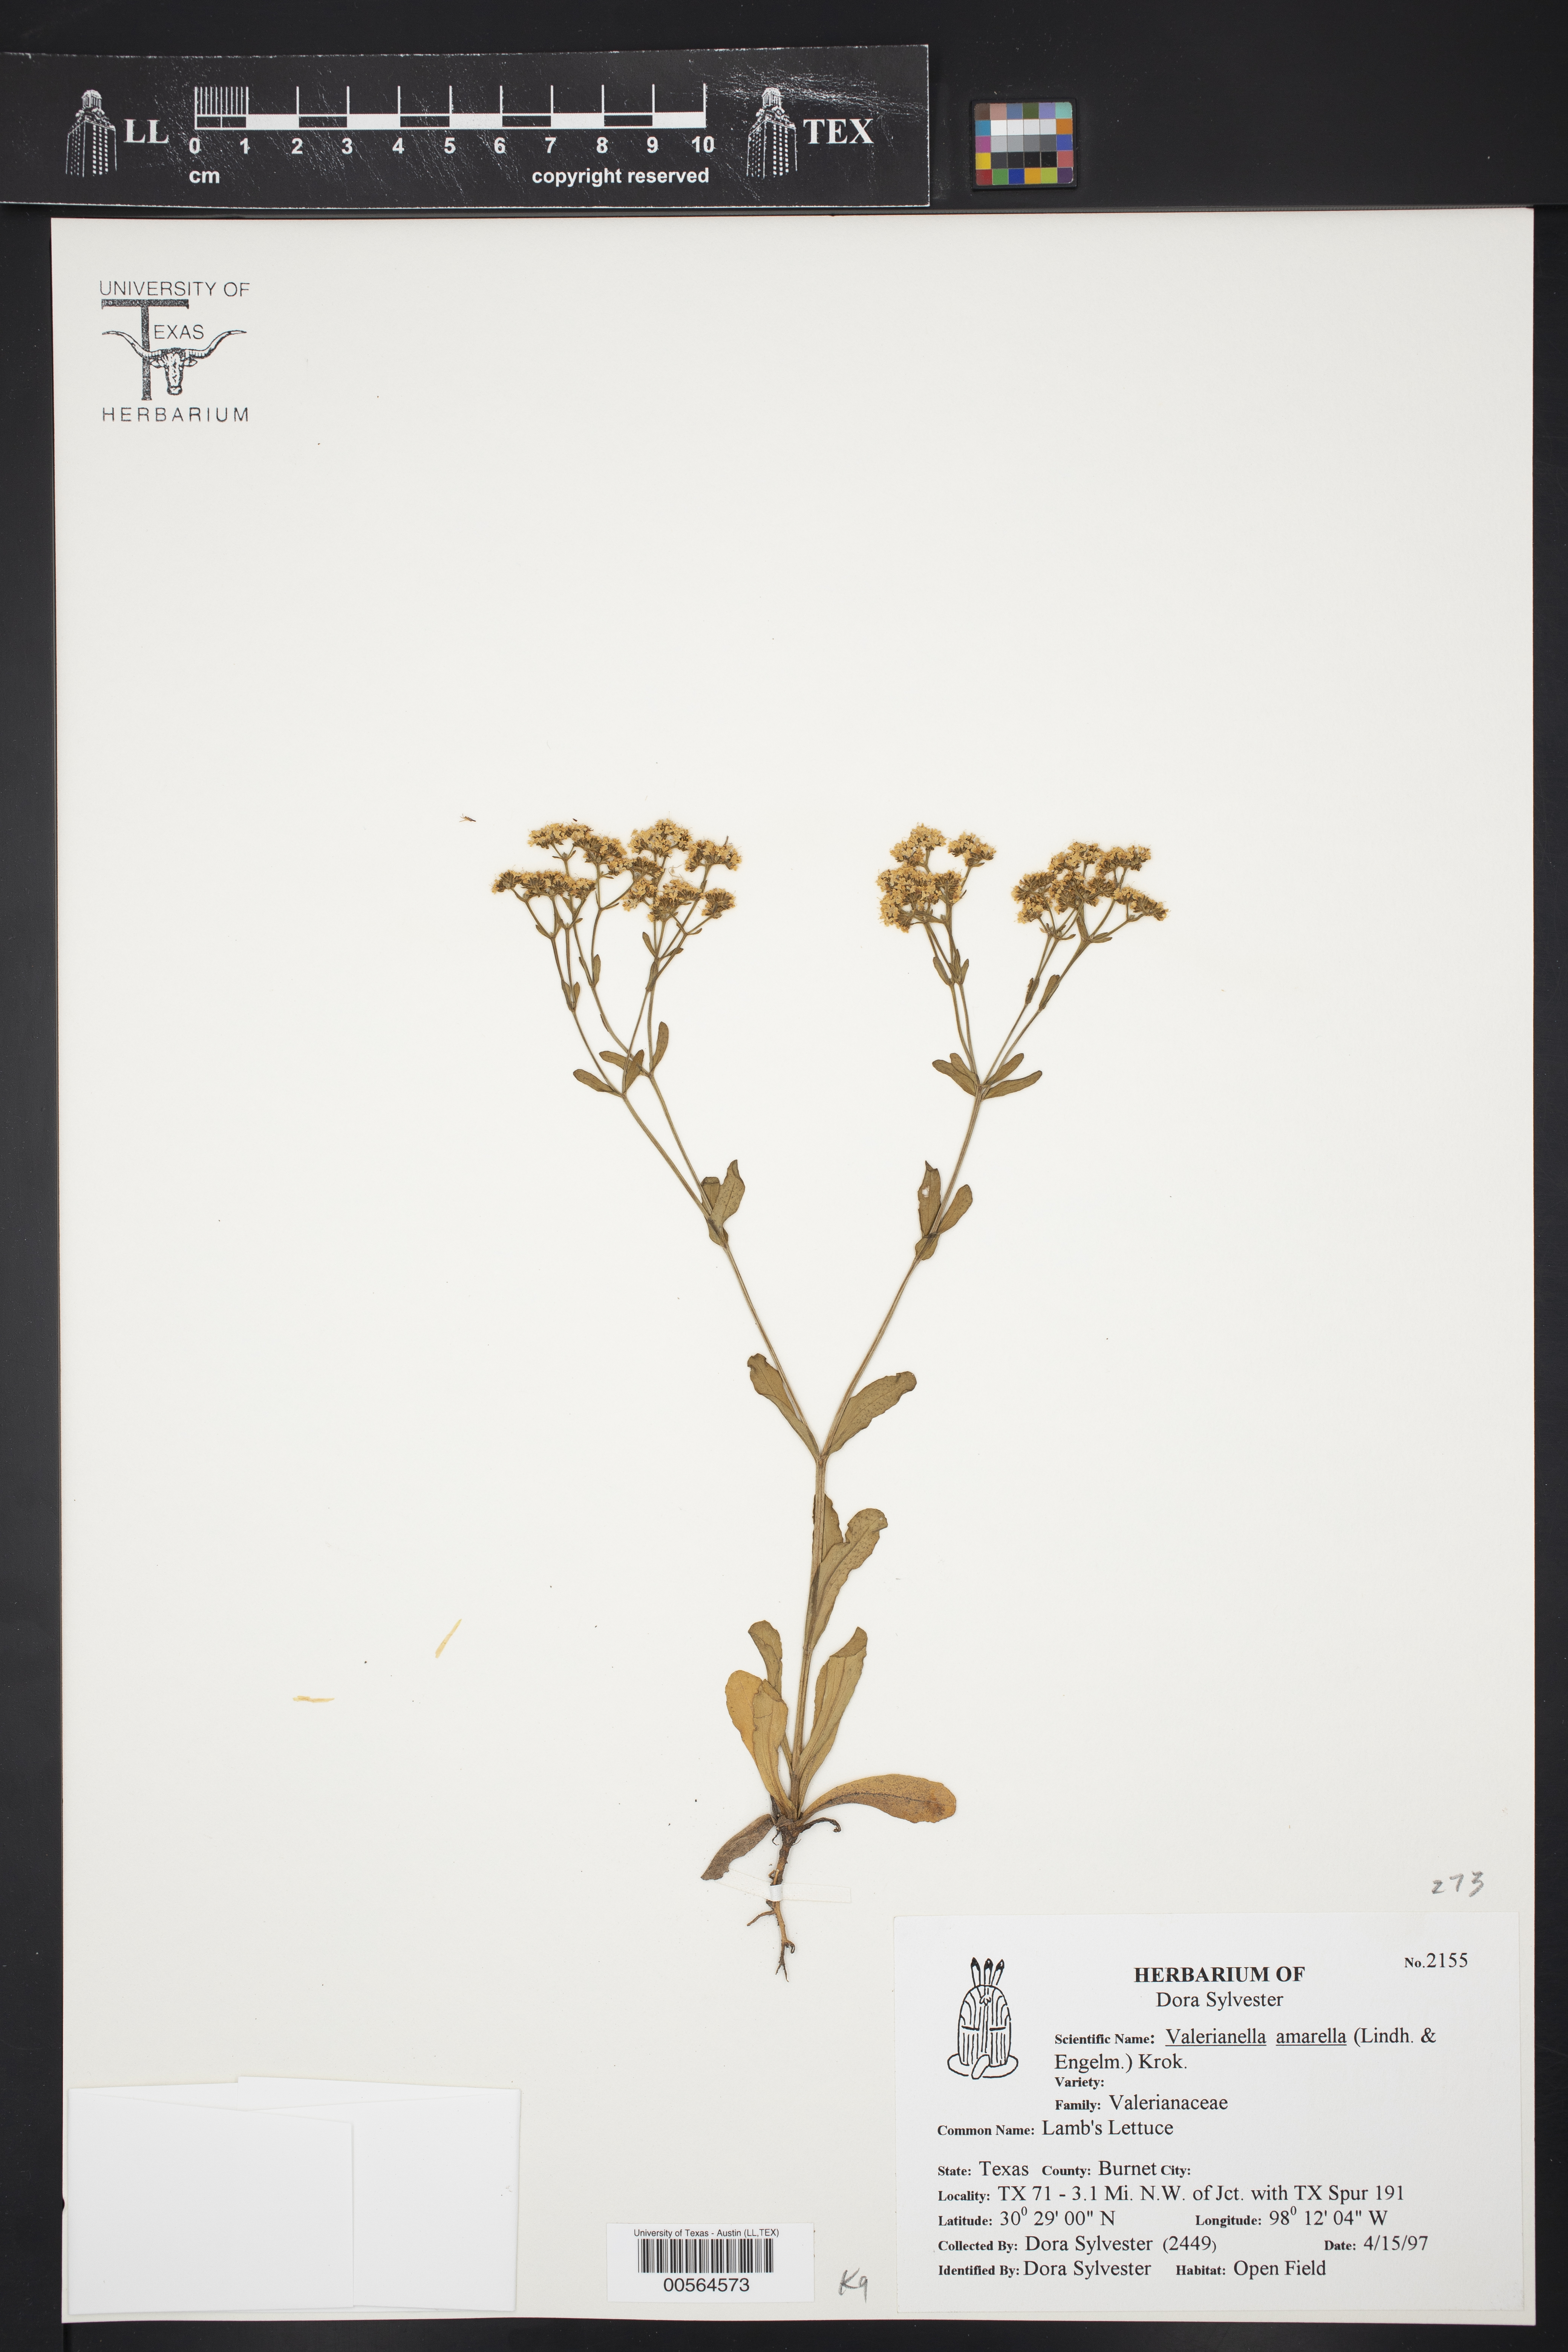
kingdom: Plantae
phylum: Tracheophyta
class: Magnoliopsida
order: Dipsacales
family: Caprifoliaceae
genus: Valerianella
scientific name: Valerianella amarella
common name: Hariy cornsalad
